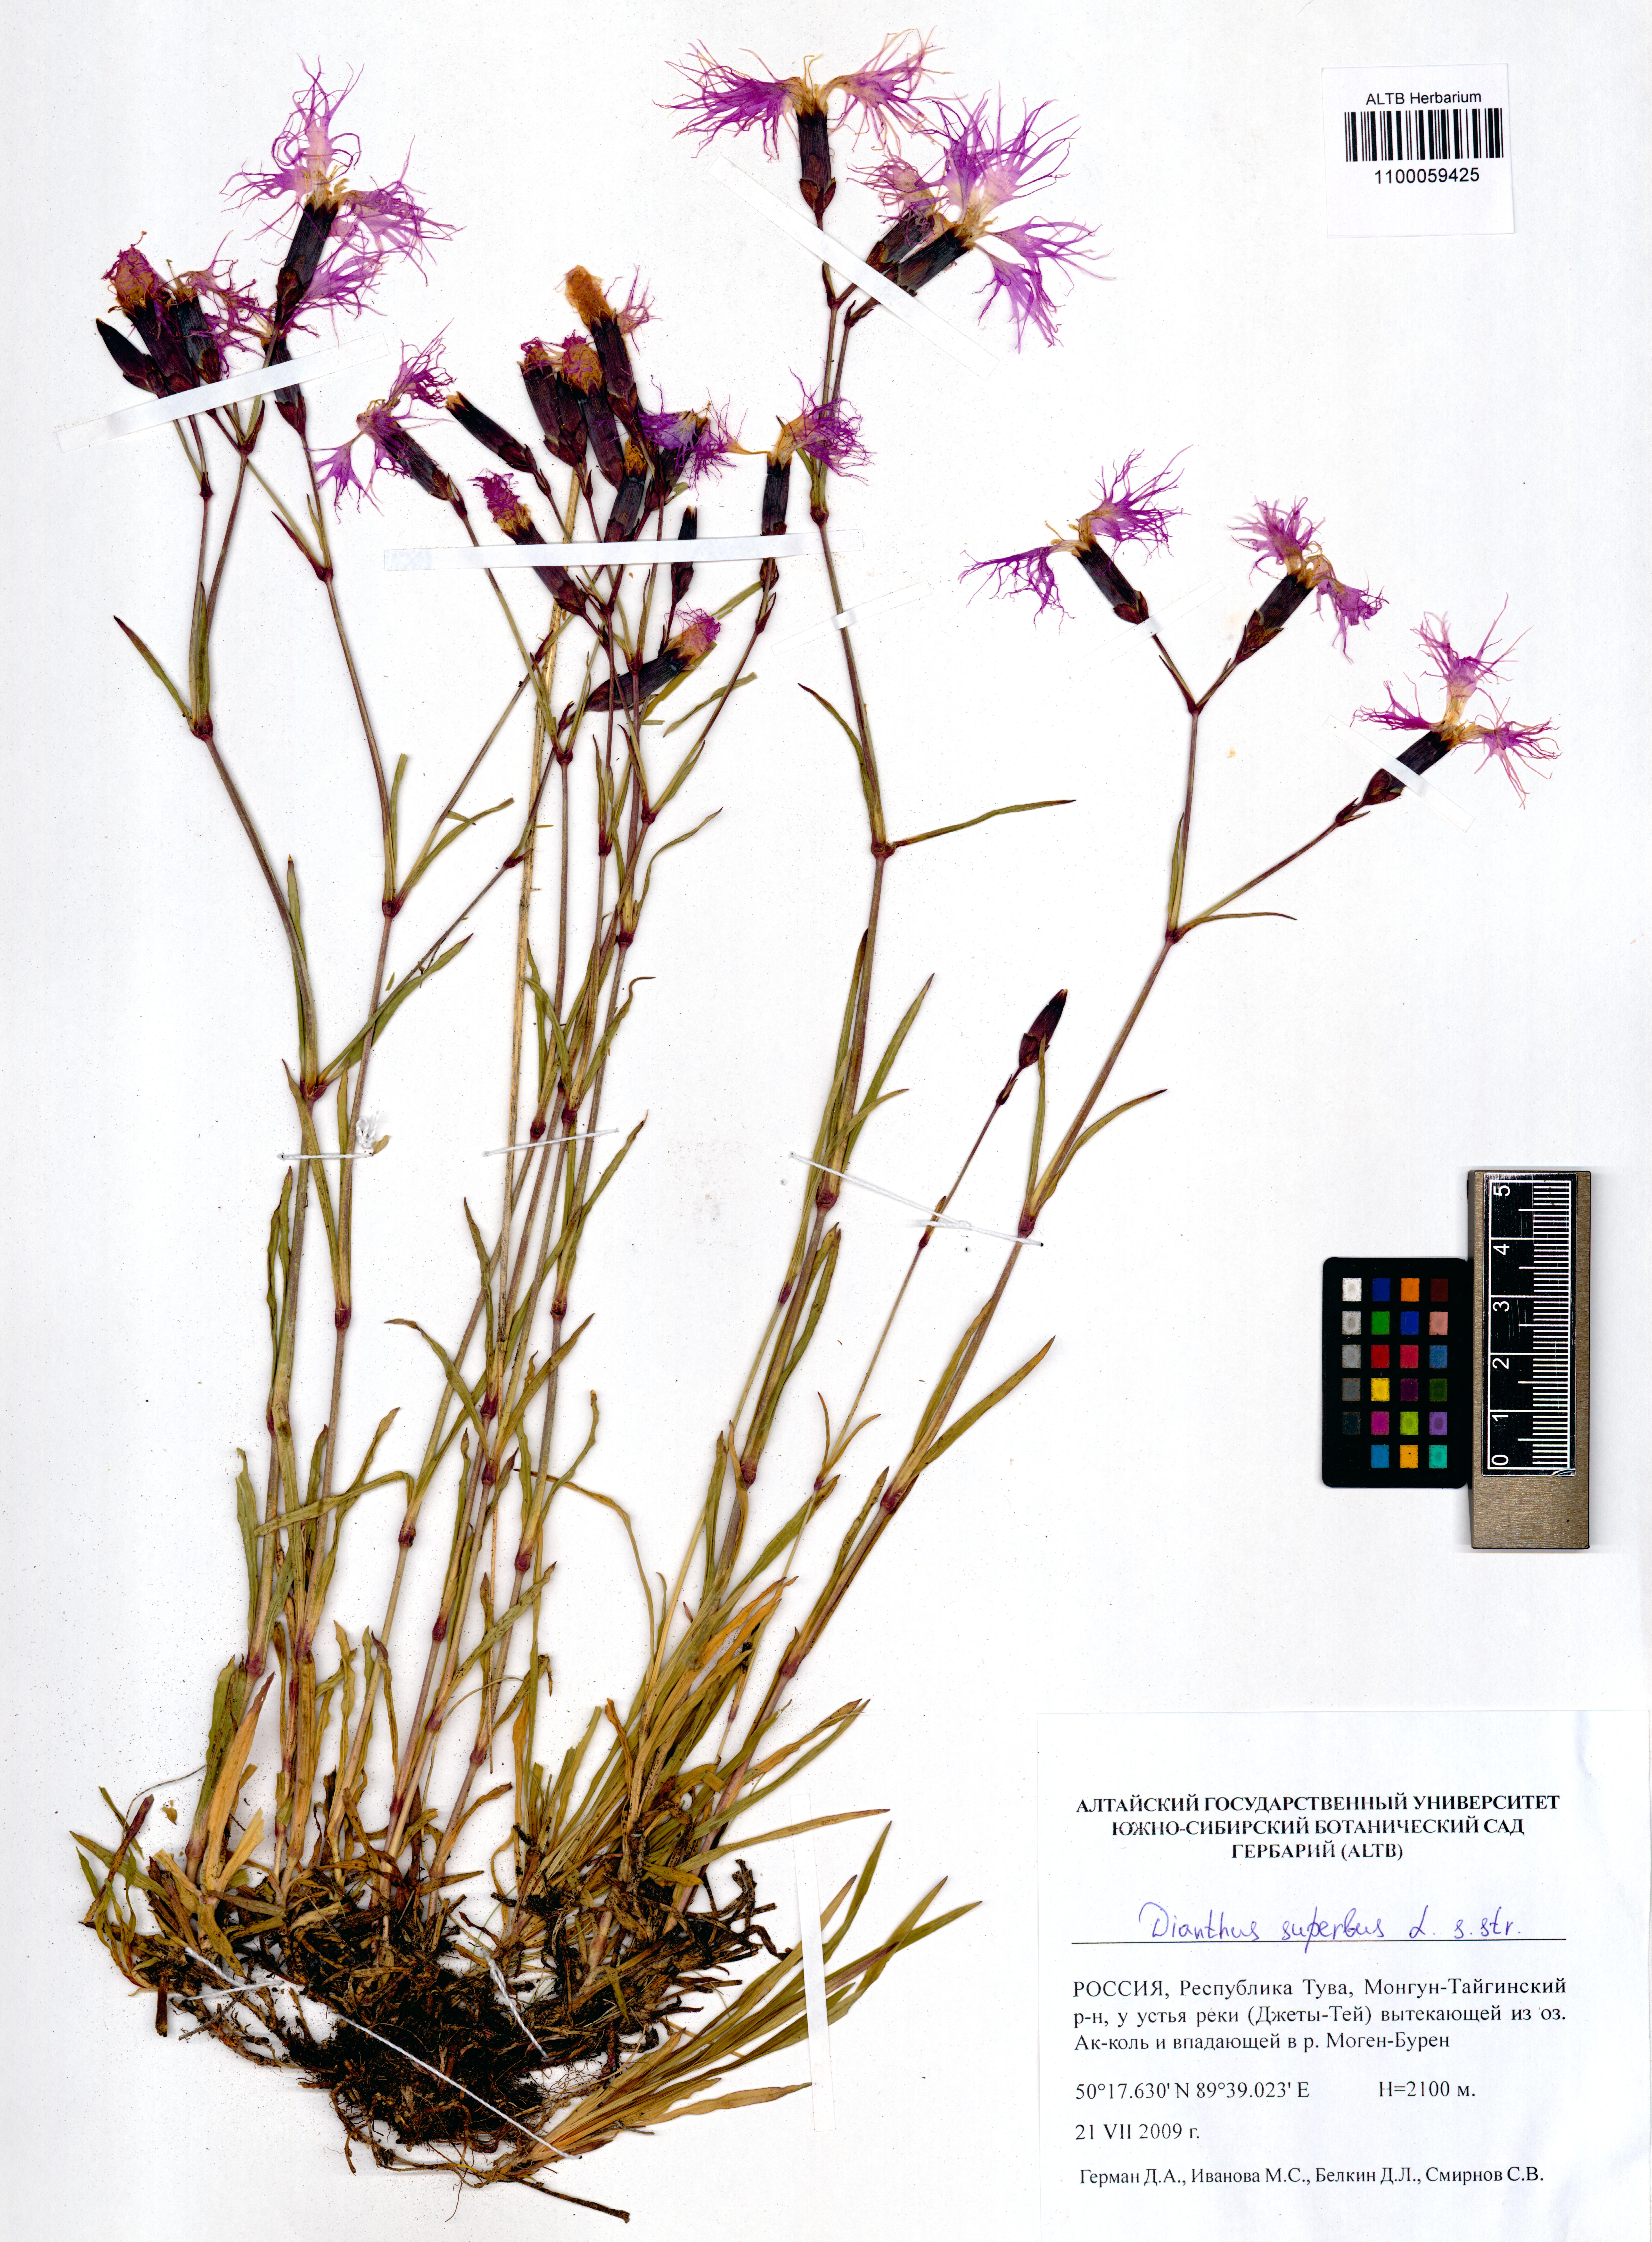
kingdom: Plantae
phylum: Tracheophyta
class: Magnoliopsida
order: Caryophyllales
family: Caryophyllaceae
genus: Dianthus
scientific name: Dianthus superbus
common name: Fringed pink
